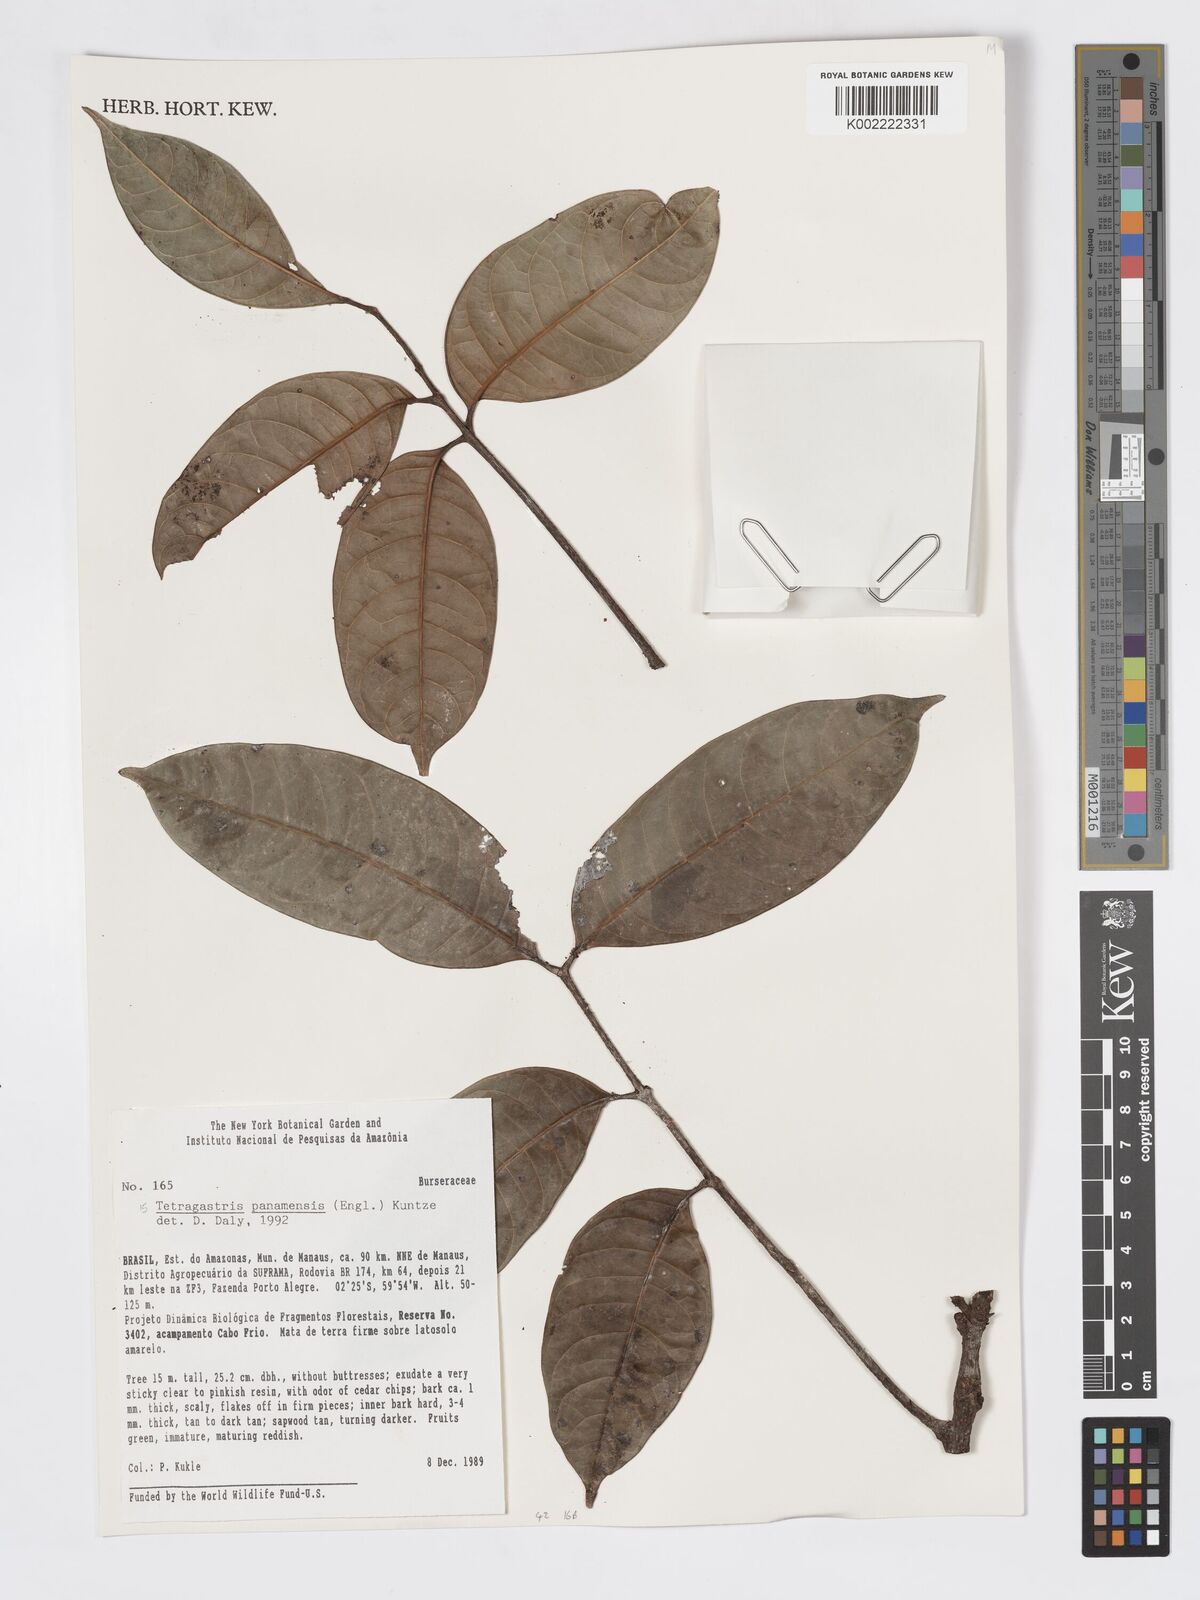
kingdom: Plantae
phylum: Tracheophyta
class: Magnoliopsida
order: Sapindales
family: Burseraceae
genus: Tetragastris
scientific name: Tetragastris panamensis
